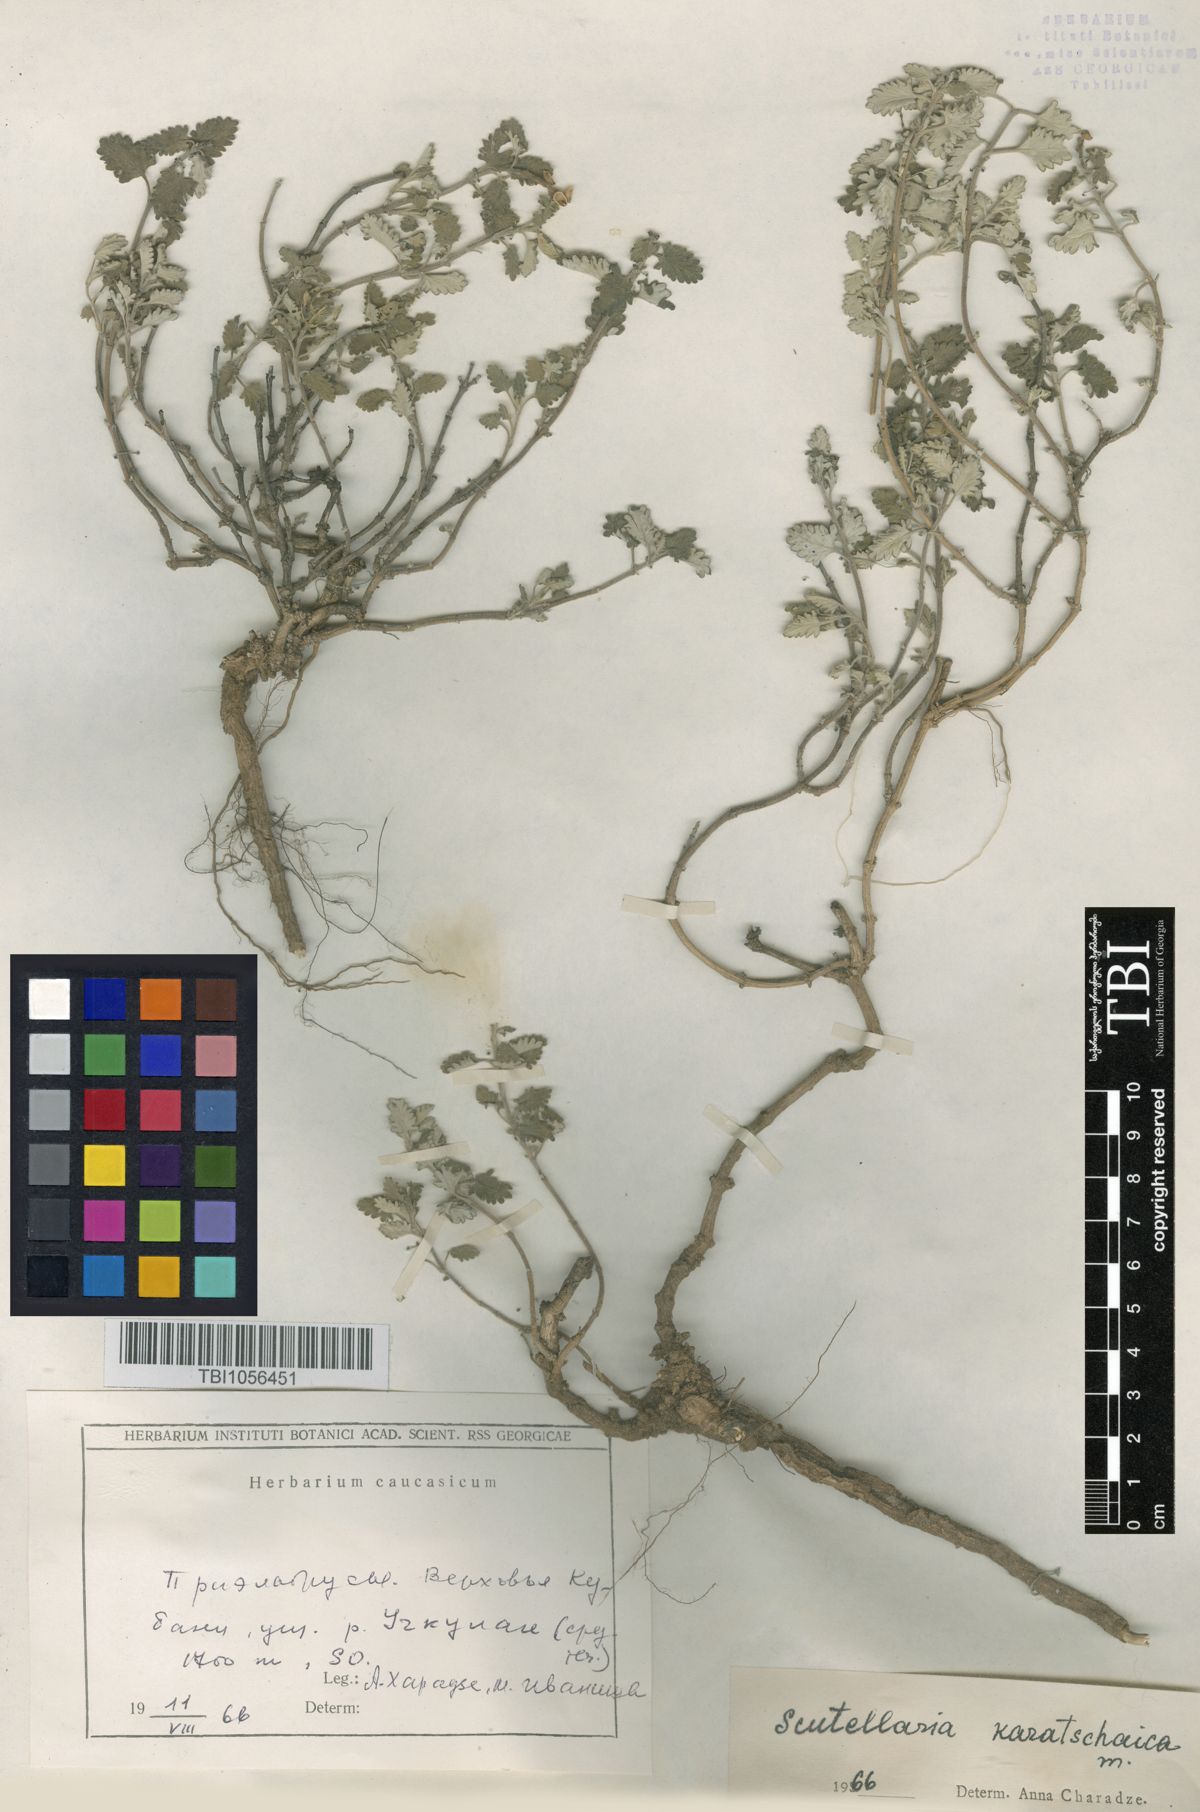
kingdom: Plantae
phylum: Tracheophyta
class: Magnoliopsida
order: Lamiales
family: Lamiaceae
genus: Scutellaria
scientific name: Scutellaria orientalis
